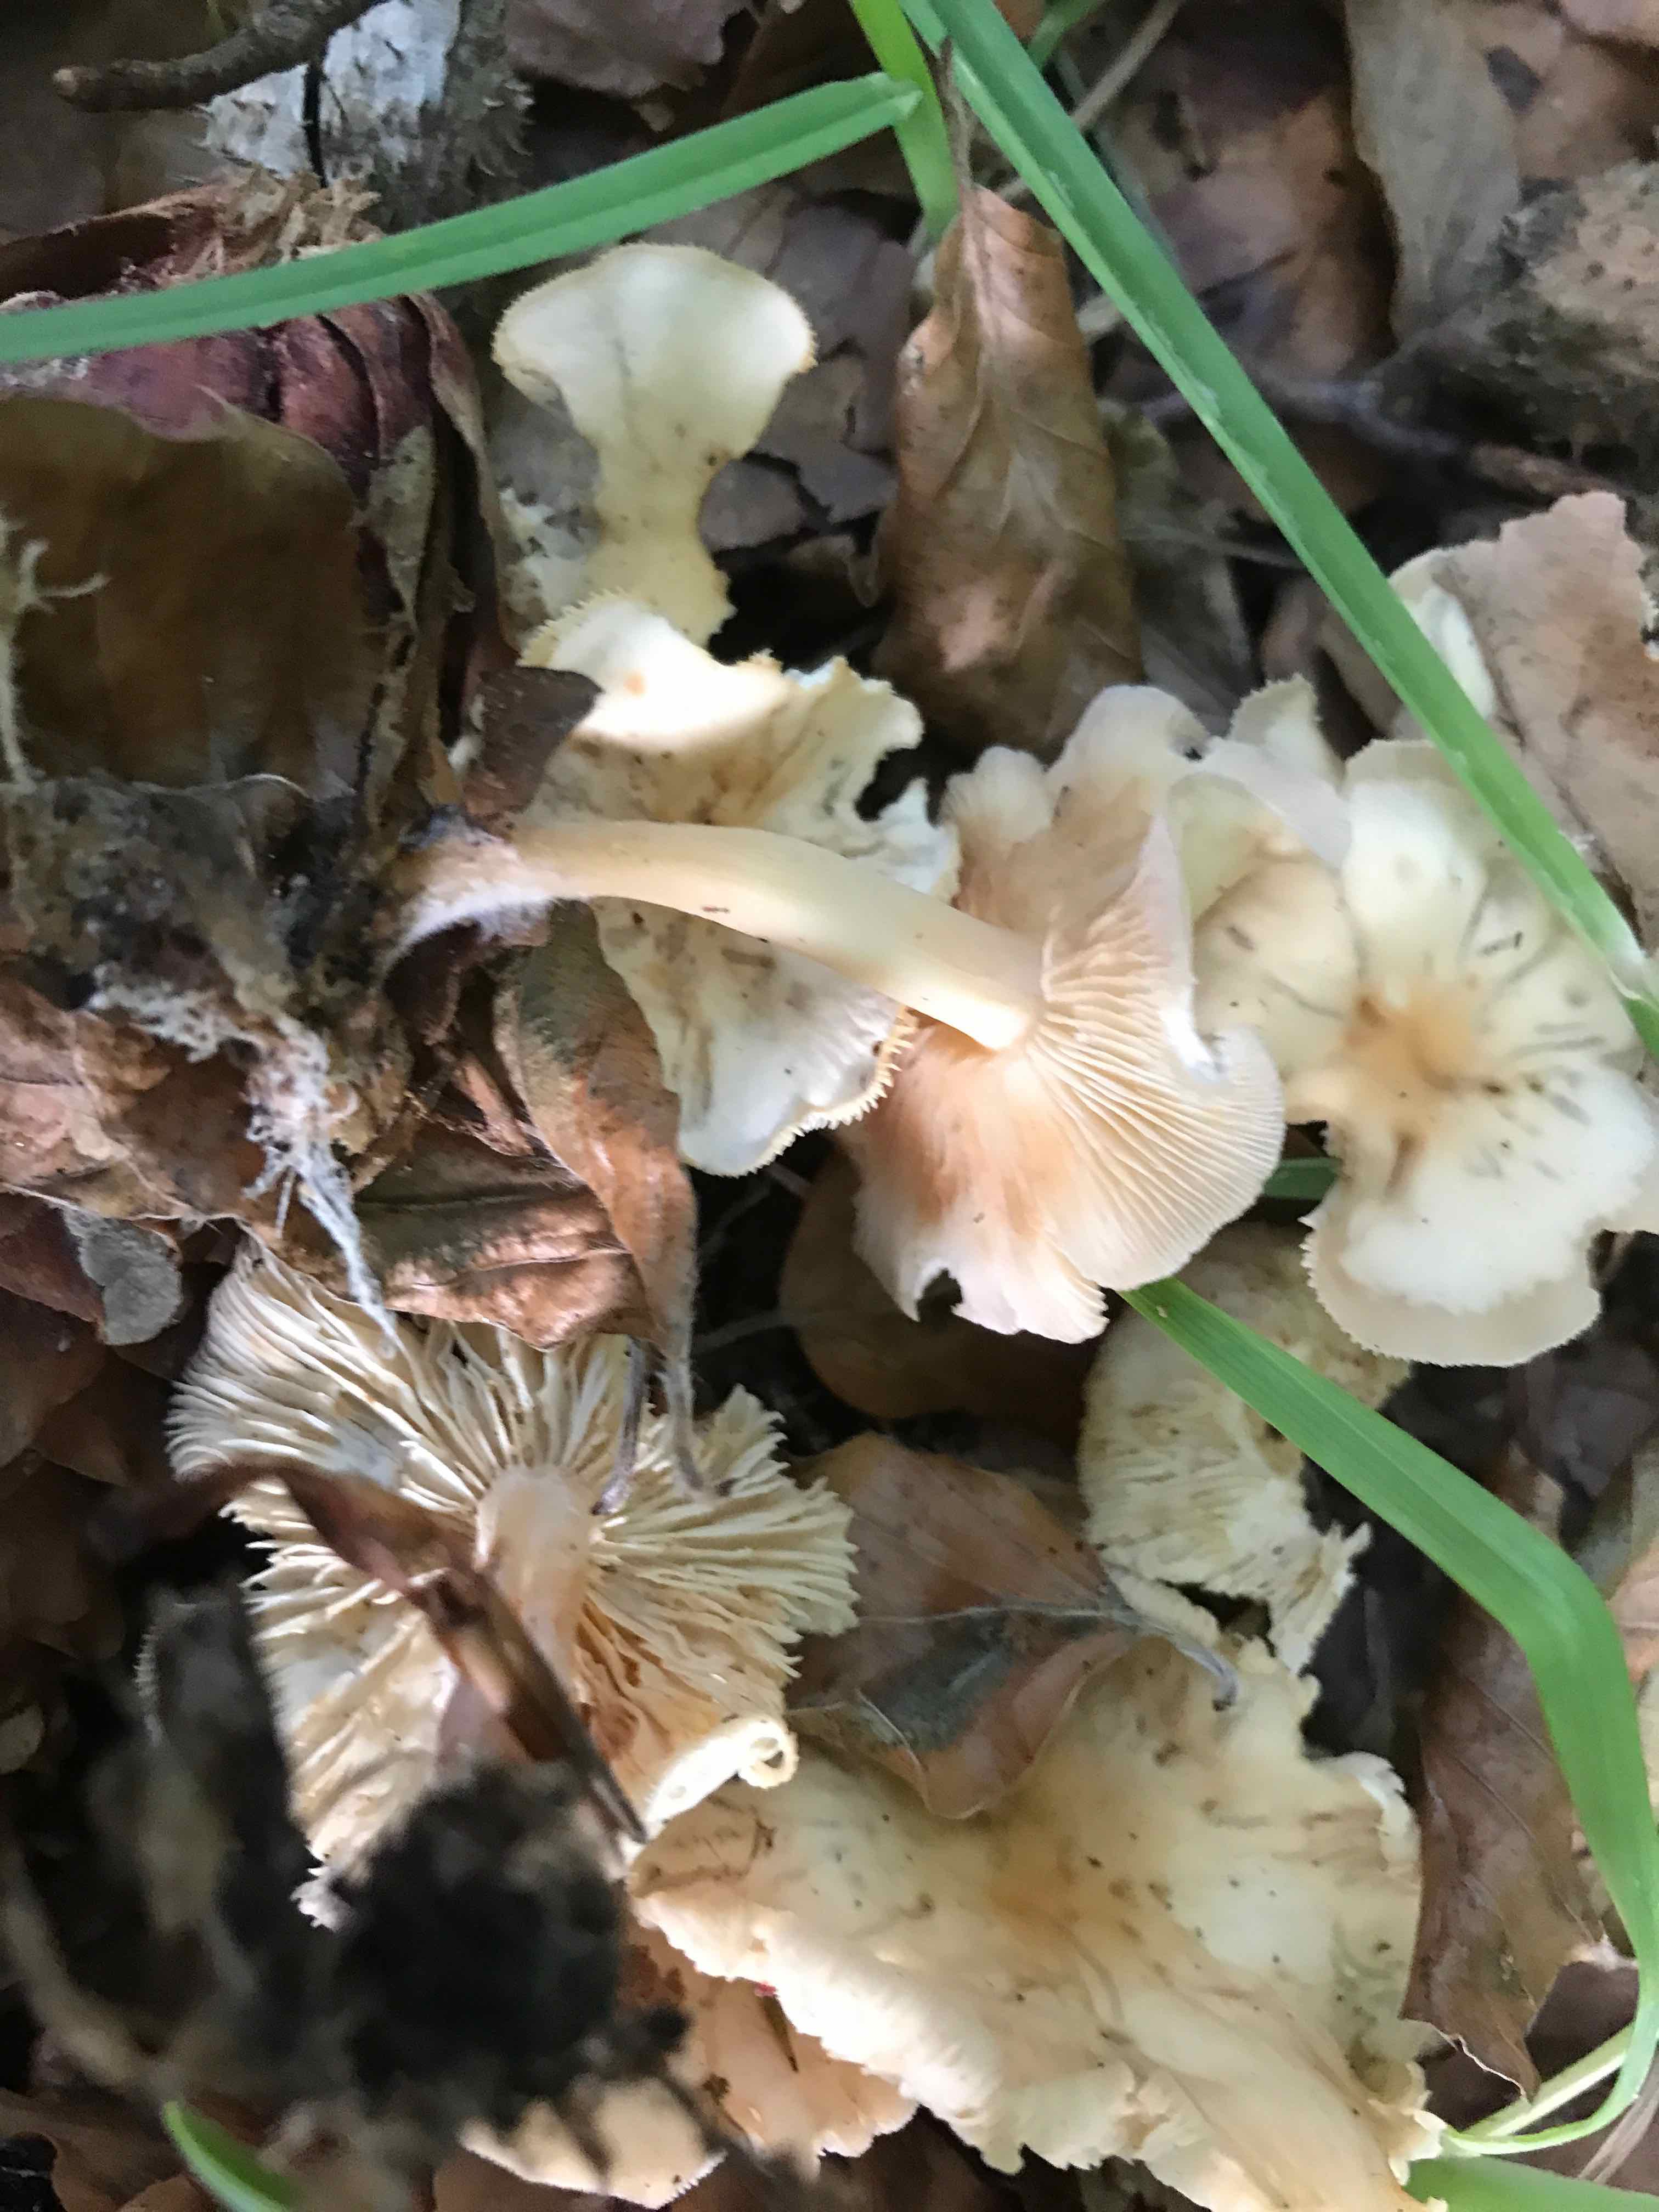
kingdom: Fungi
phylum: Basidiomycota
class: Agaricomycetes
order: Agaricales
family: Omphalotaceae
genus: Gymnopus
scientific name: Gymnopus dryophilus
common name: løv-fladhat
